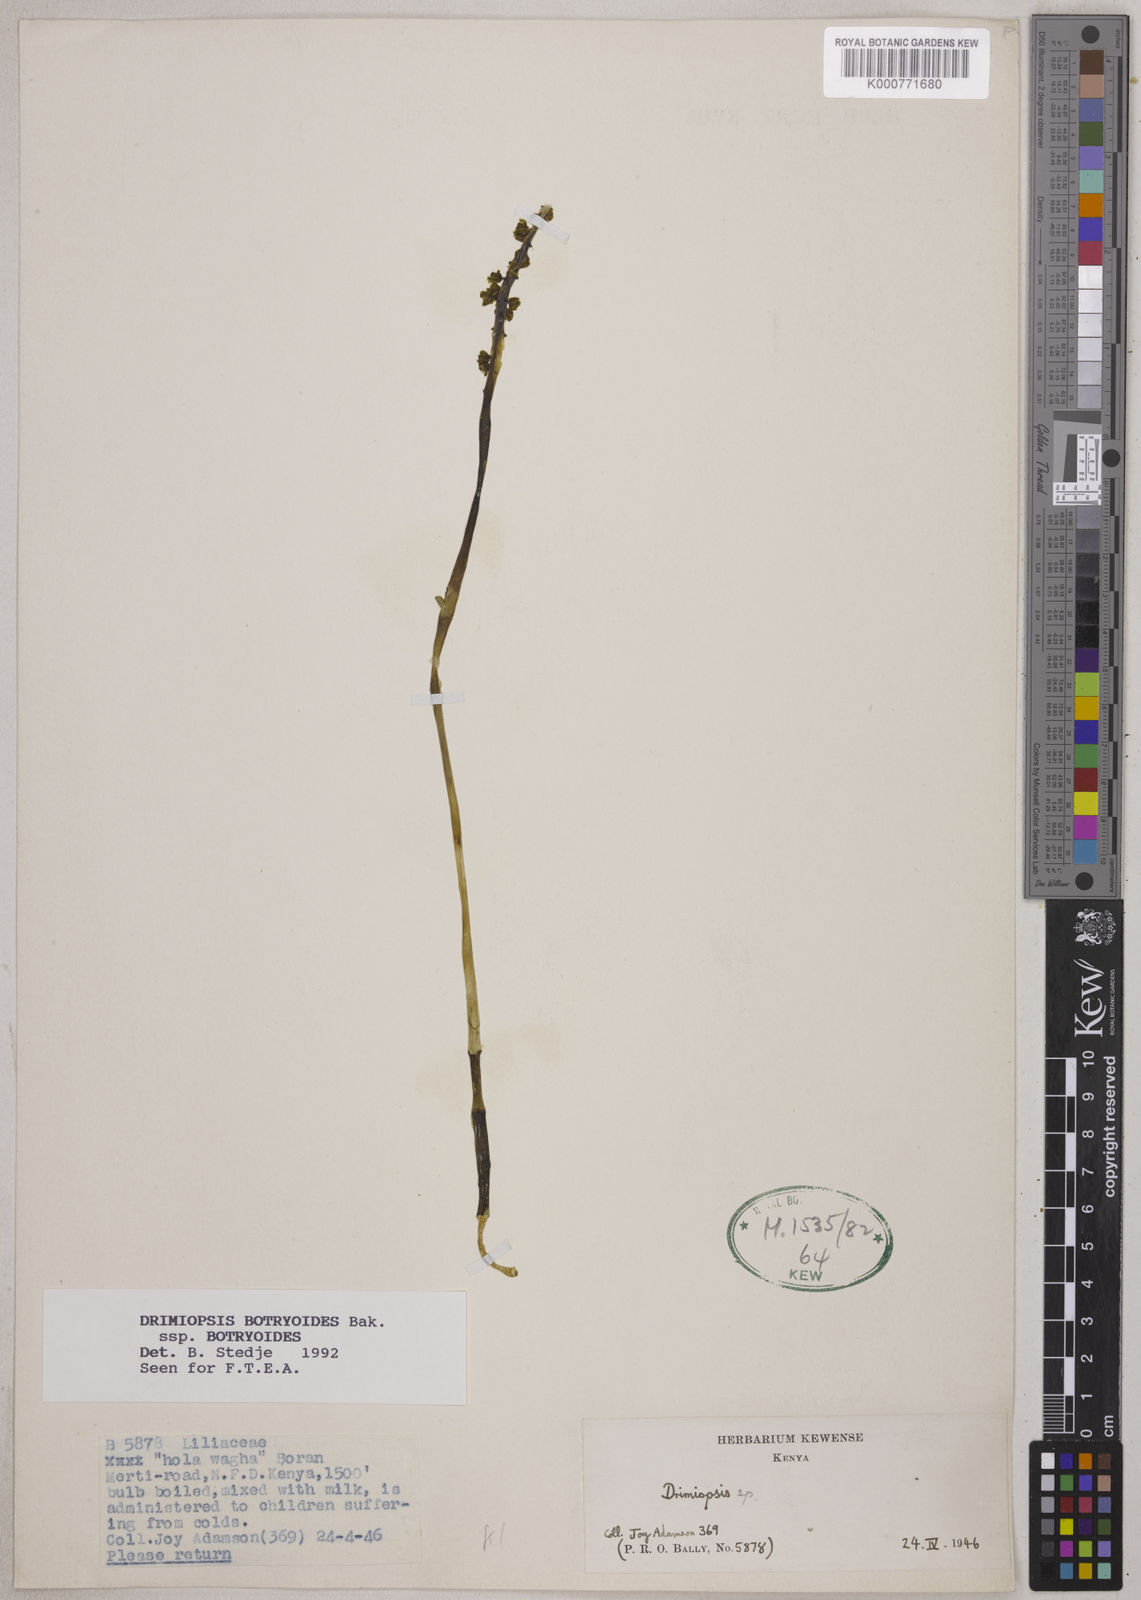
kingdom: Plantae
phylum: Tracheophyta
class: Liliopsida
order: Asparagales
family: Asparagaceae
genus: Drimiopsis
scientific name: Drimiopsis botryoides
